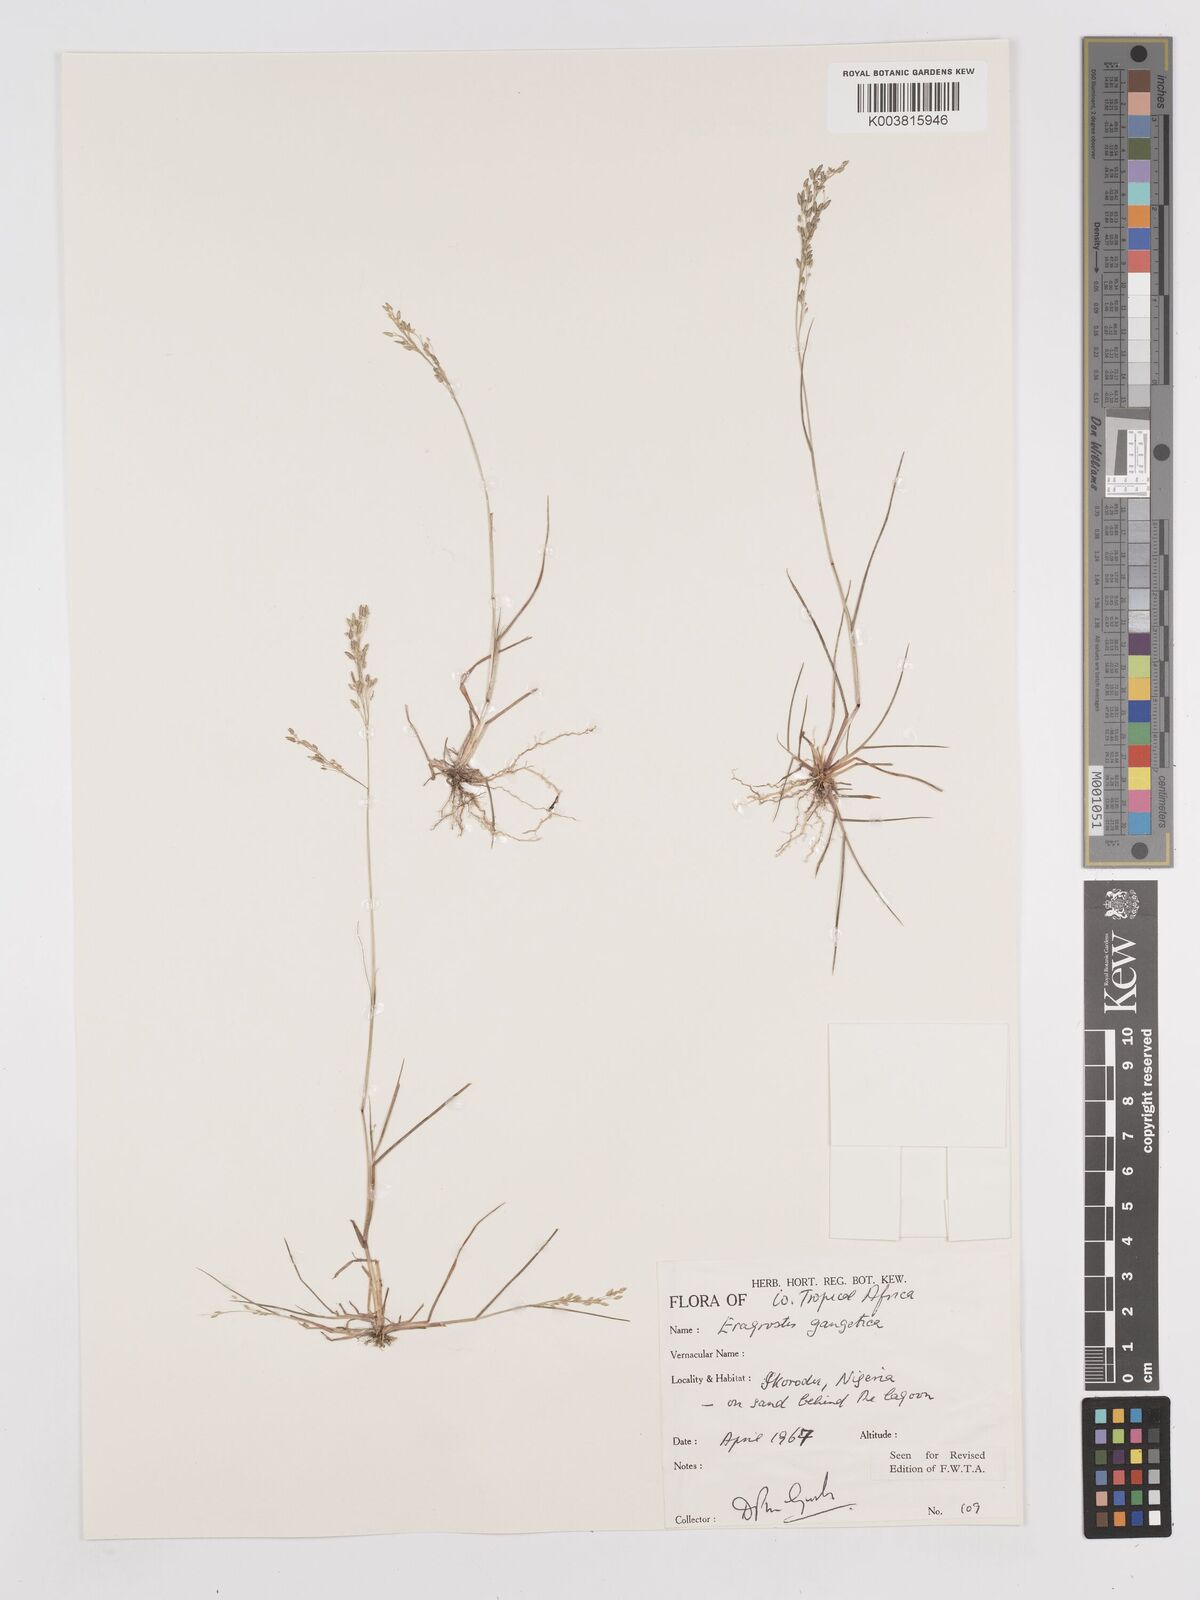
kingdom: Plantae
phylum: Tracheophyta
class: Liliopsida
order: Poales
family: Poaceae
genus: Eragrostis
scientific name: Eragrostis gangetica
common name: Slimflower lovegrass
